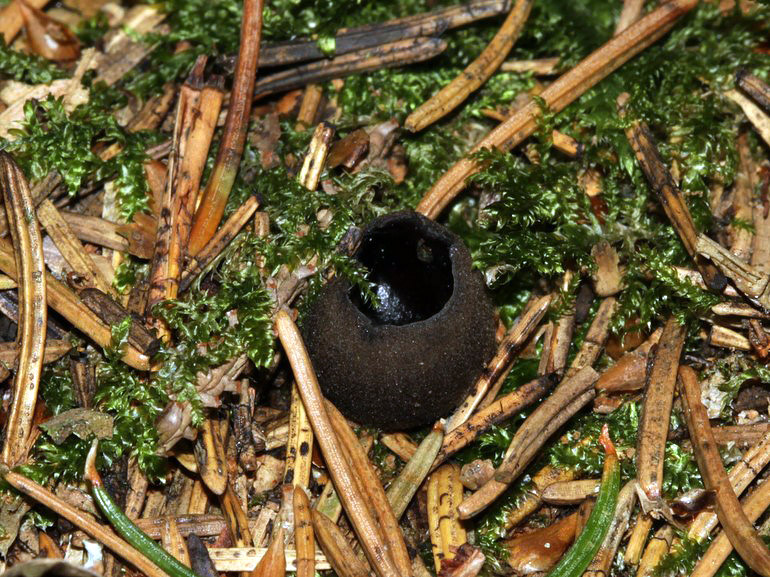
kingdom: Fungi
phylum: Ascomycota
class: Pezizomycetes
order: Pezizales
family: Sarcosomataceae
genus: Pseudoplectania
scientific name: Pseudoplectania nigrella
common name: almindelig sortbæger
